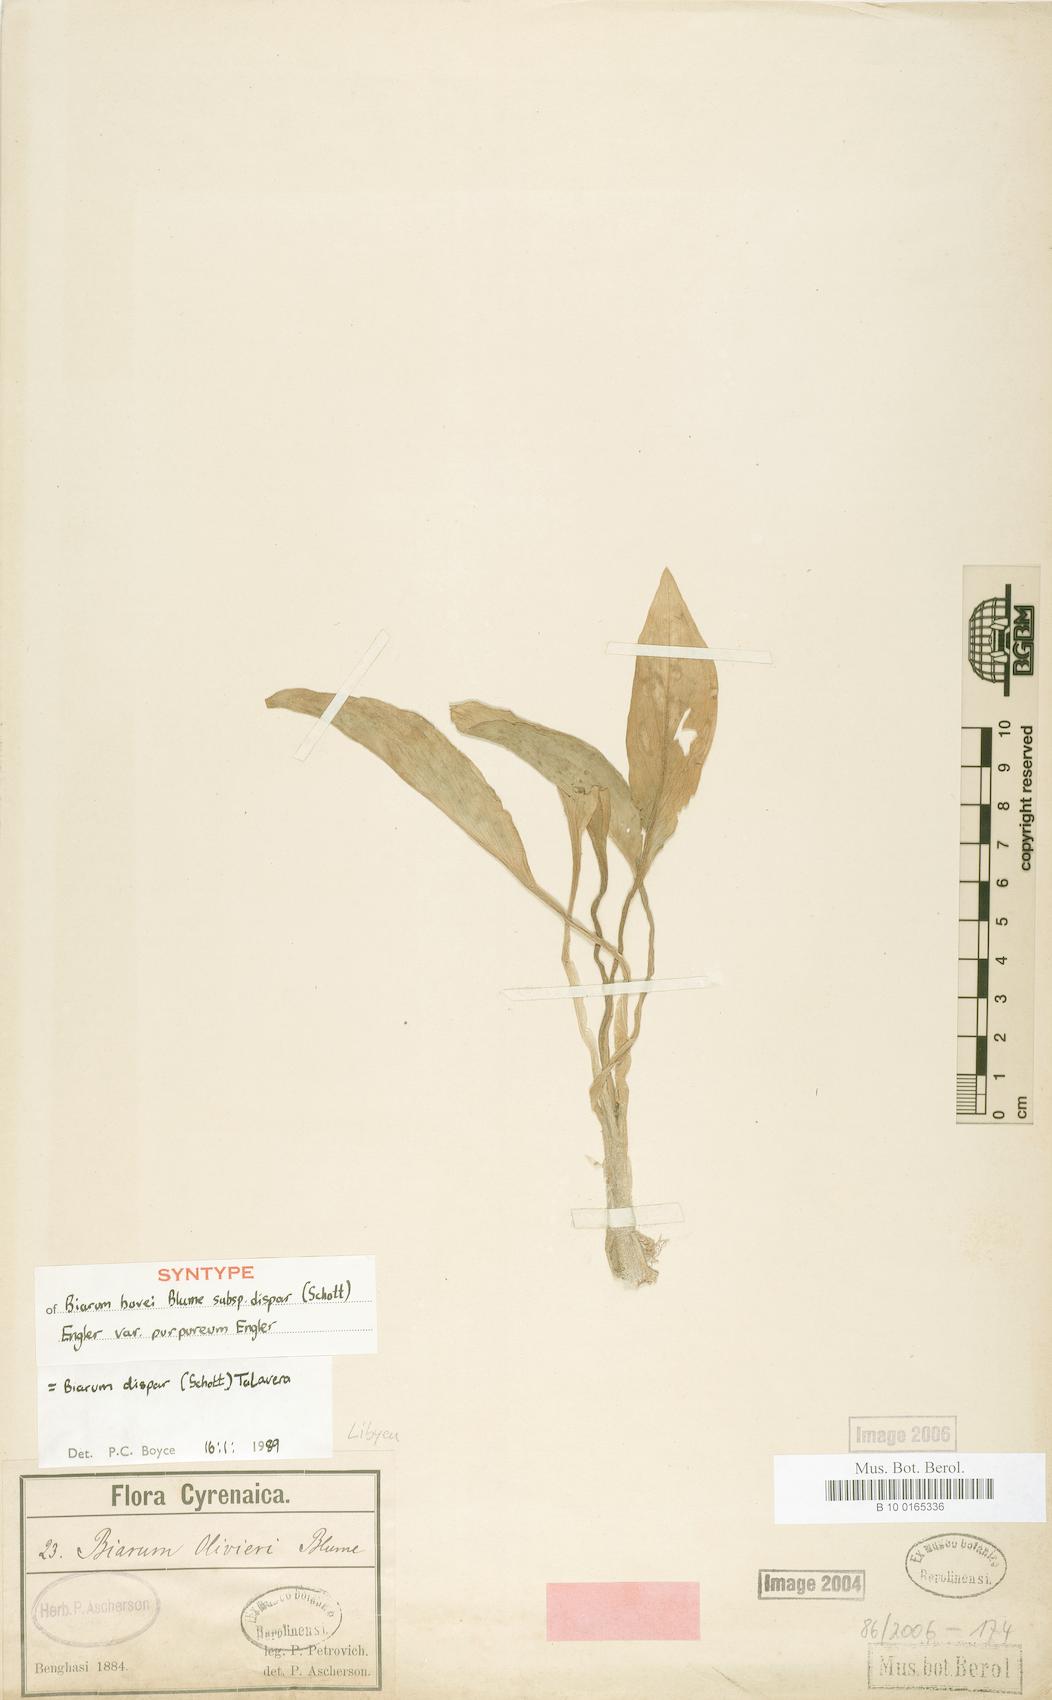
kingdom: Plantae
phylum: Tracheophyta
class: Liliopsida
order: Alismatales
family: Araceae
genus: Biarum
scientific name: Biarum dispar
